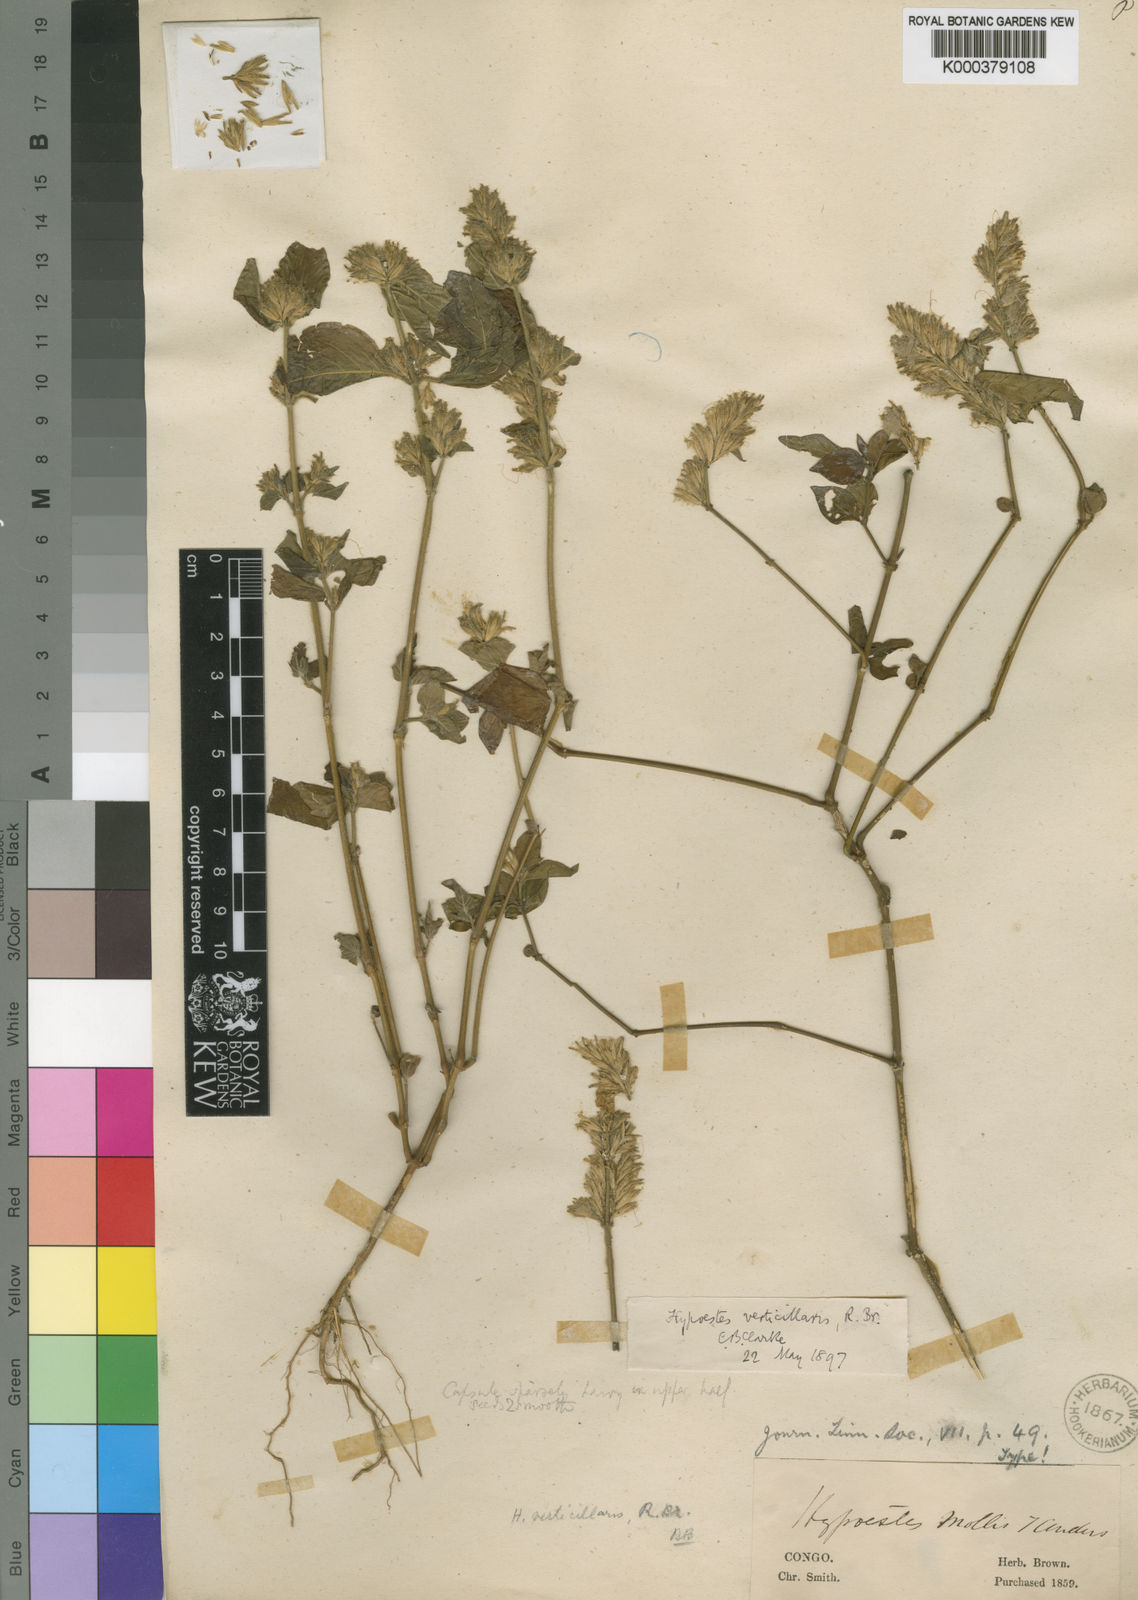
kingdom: Plantae
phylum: Tracheophyta
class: Magnoliopsida
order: Lamiales
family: Acanthaceae
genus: Hypoestes
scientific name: Hypoestes
